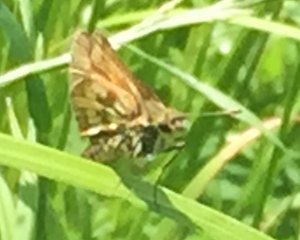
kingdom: Animalia
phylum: Arthropoda
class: Insecta
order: Lepidoptera
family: Hesperiidae
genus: Polites
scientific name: Polites coras
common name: Peck's Skipper
